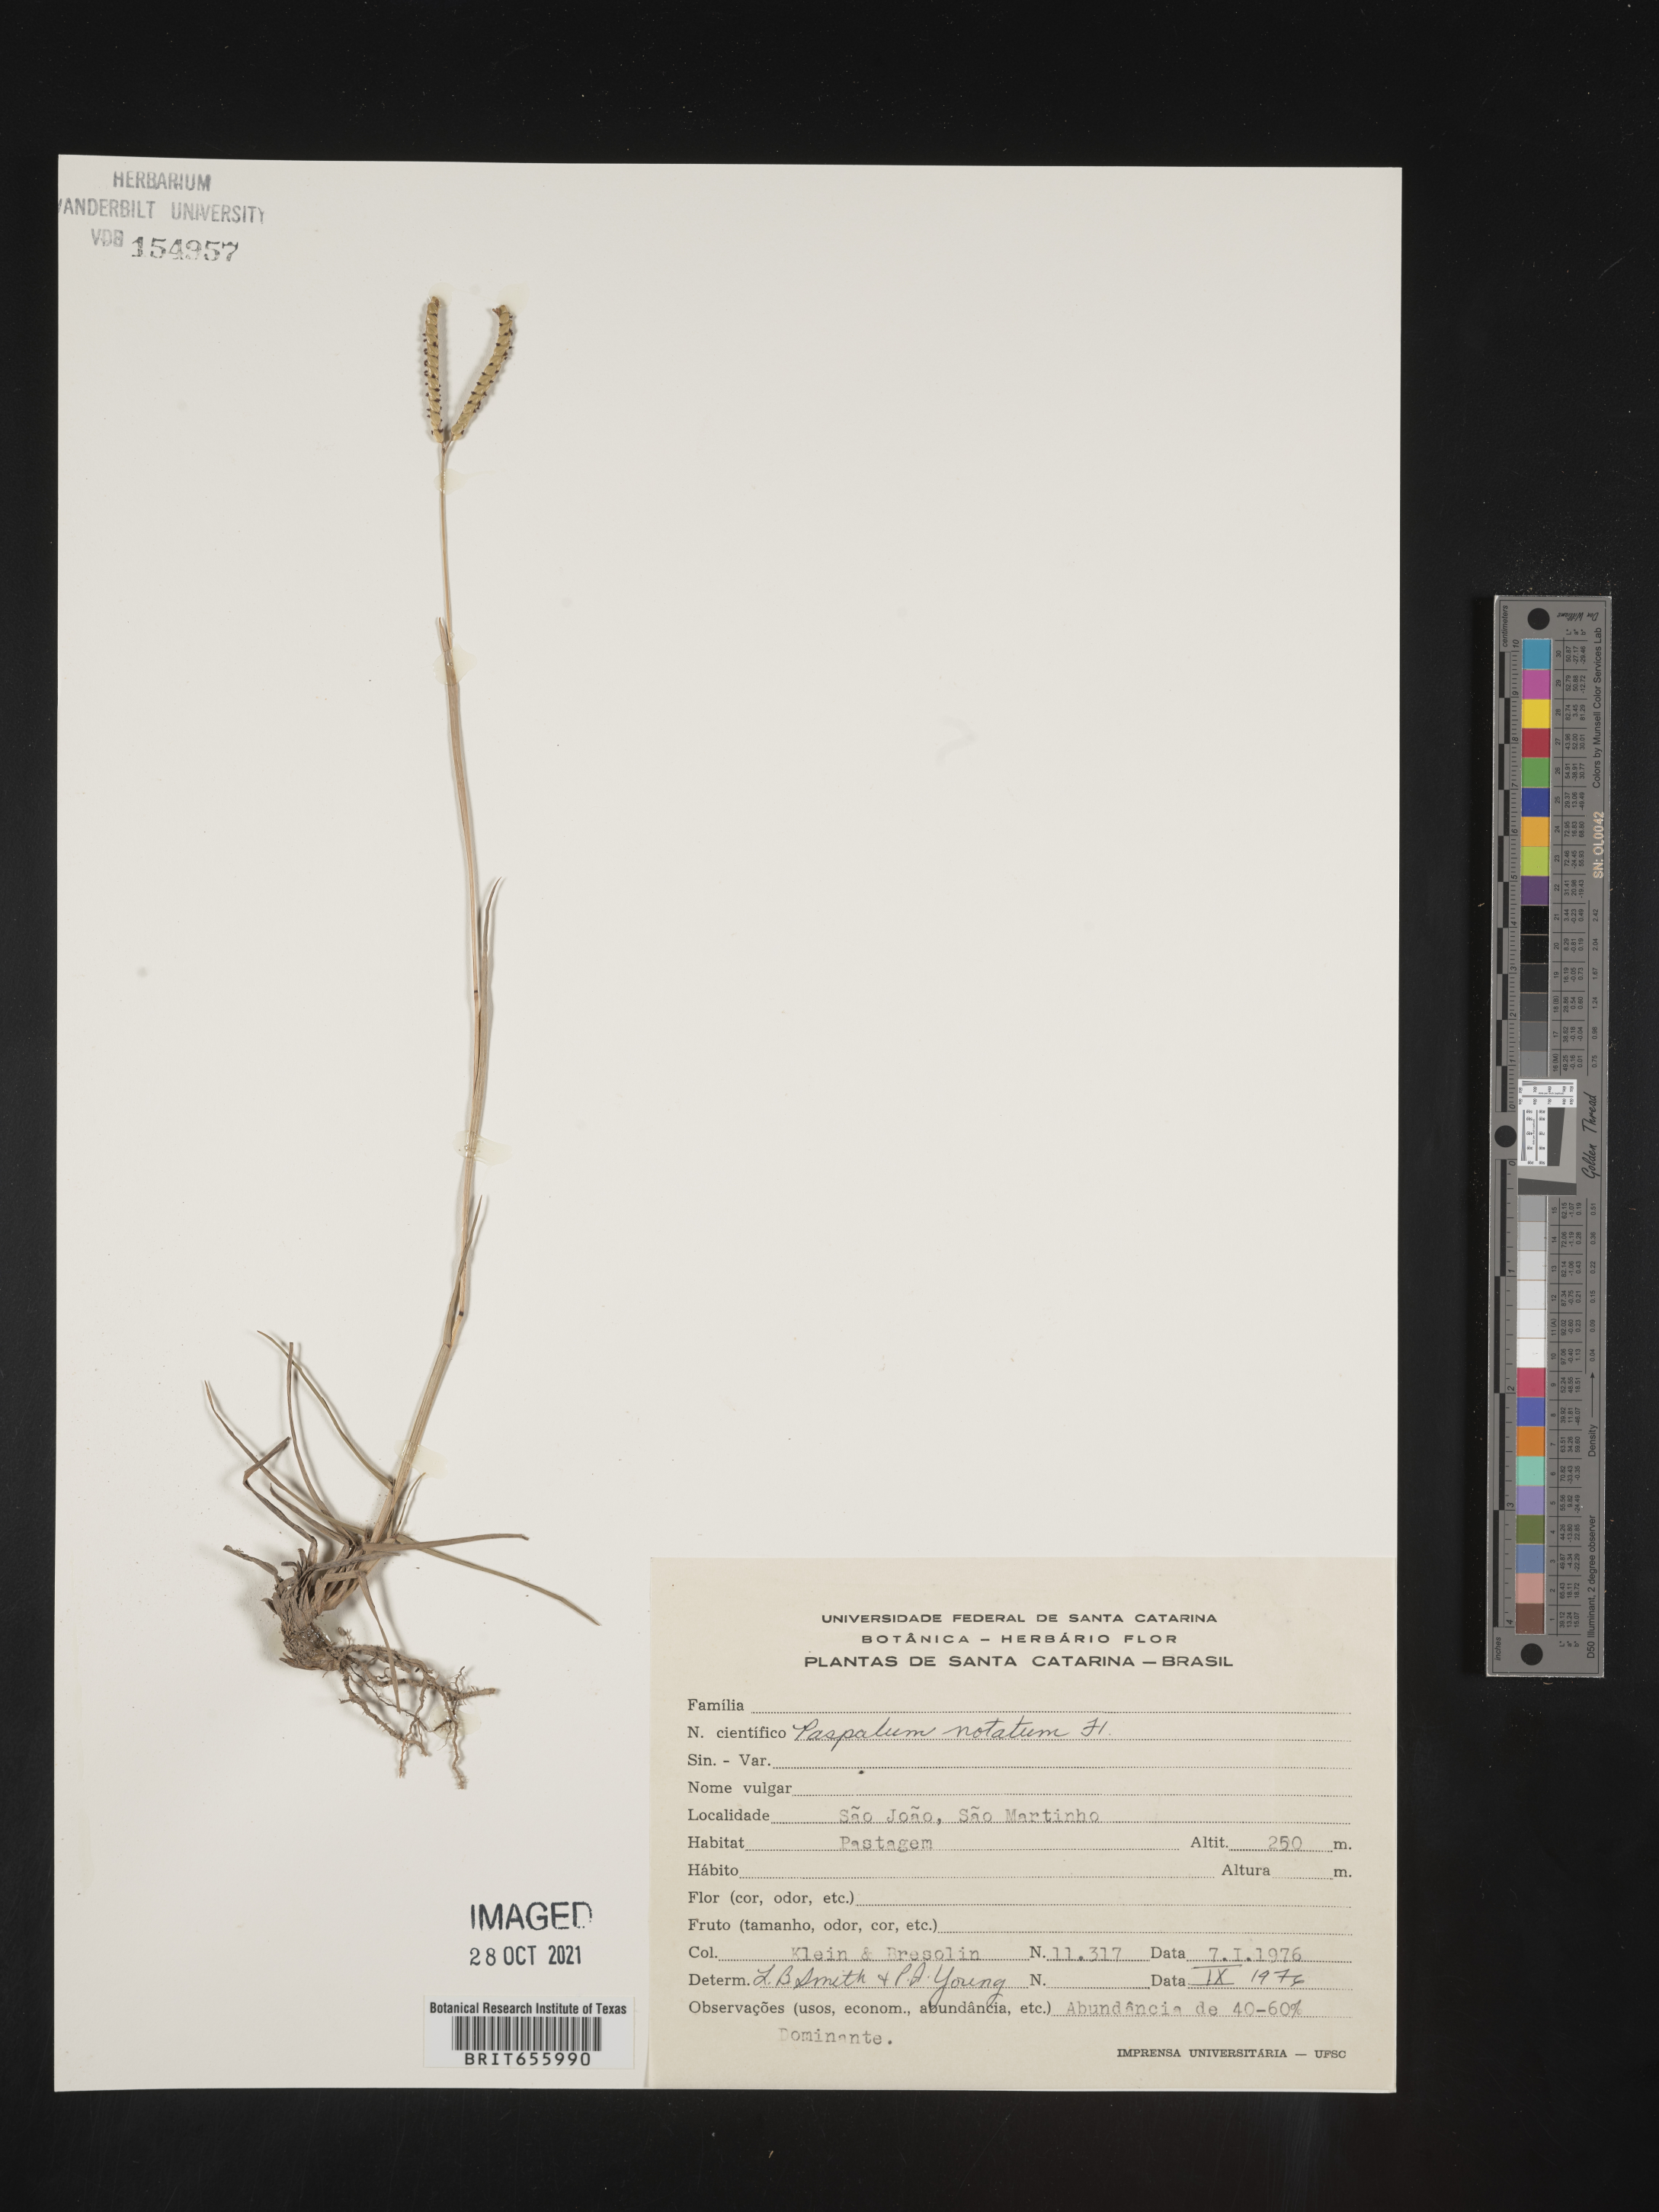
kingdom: Plantae
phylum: Tracheophyta
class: Liliopsida
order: Poales
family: Poaceae
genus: Paspalum
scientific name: Paspalum
